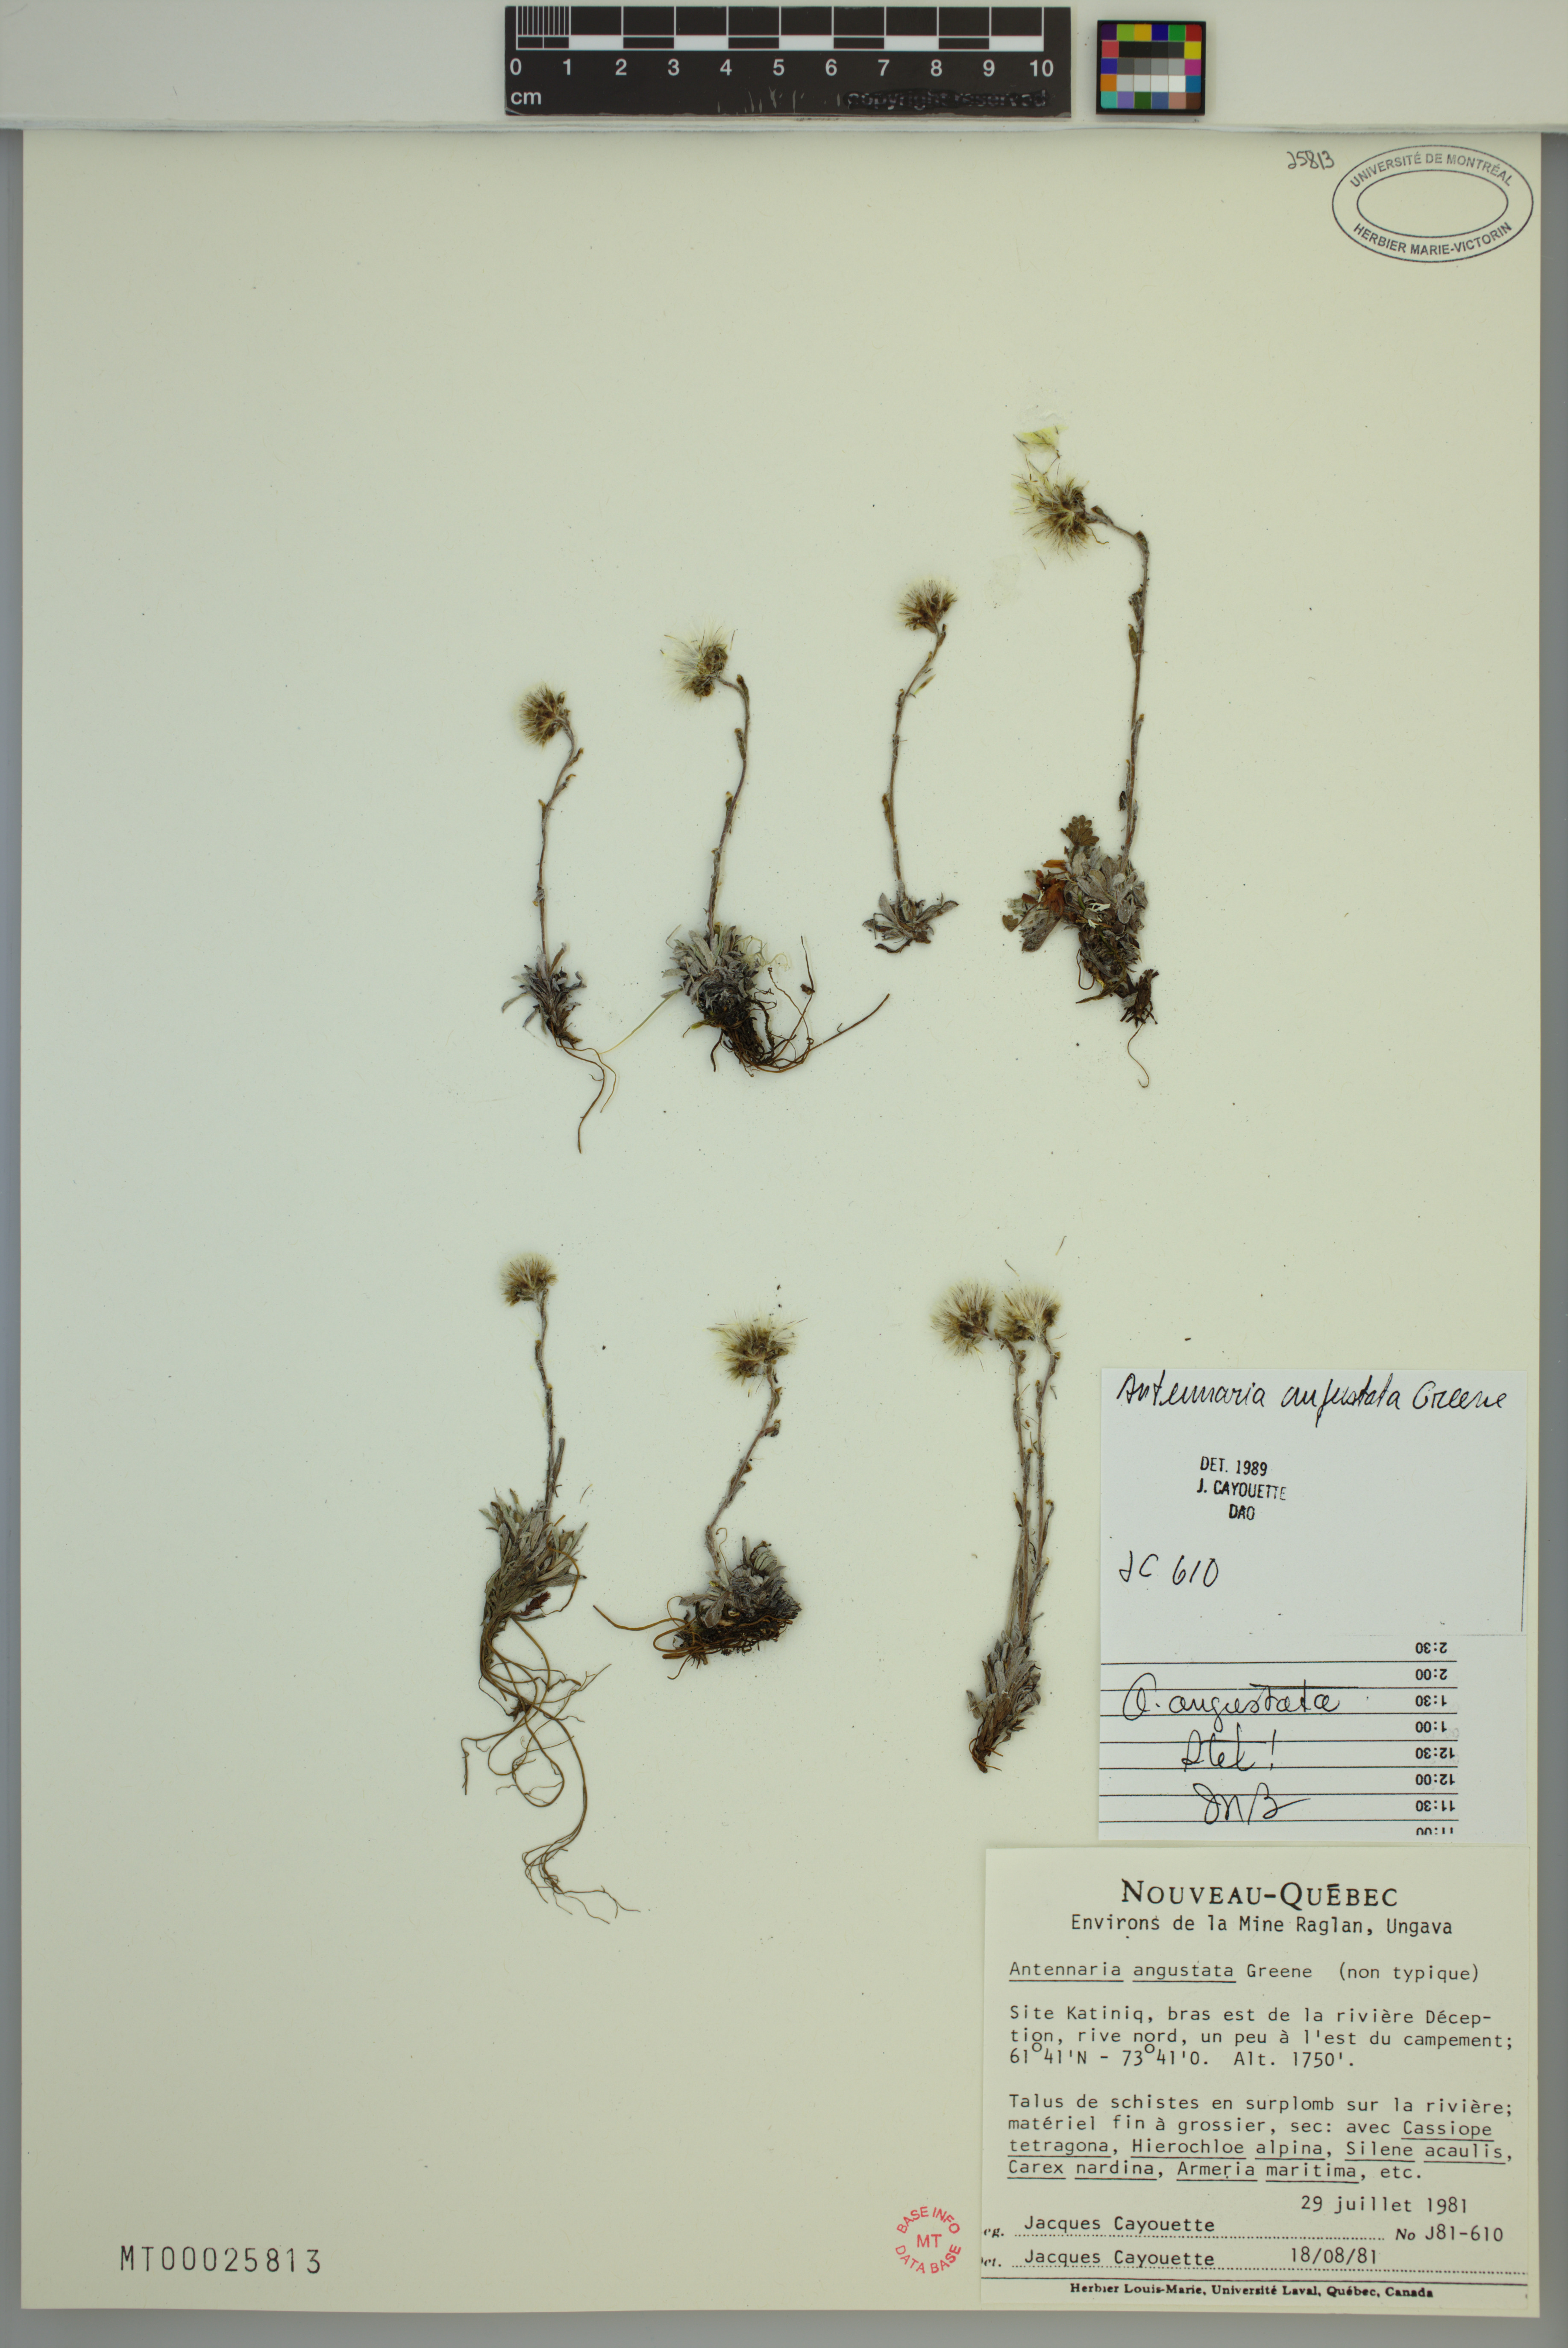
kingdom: Plantae
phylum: Tracheophyta
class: Magnoliopsida
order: Asterales
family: Asteraceae
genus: Antennaria
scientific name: Antennaria monocephala
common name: Pygmy pussytoes
